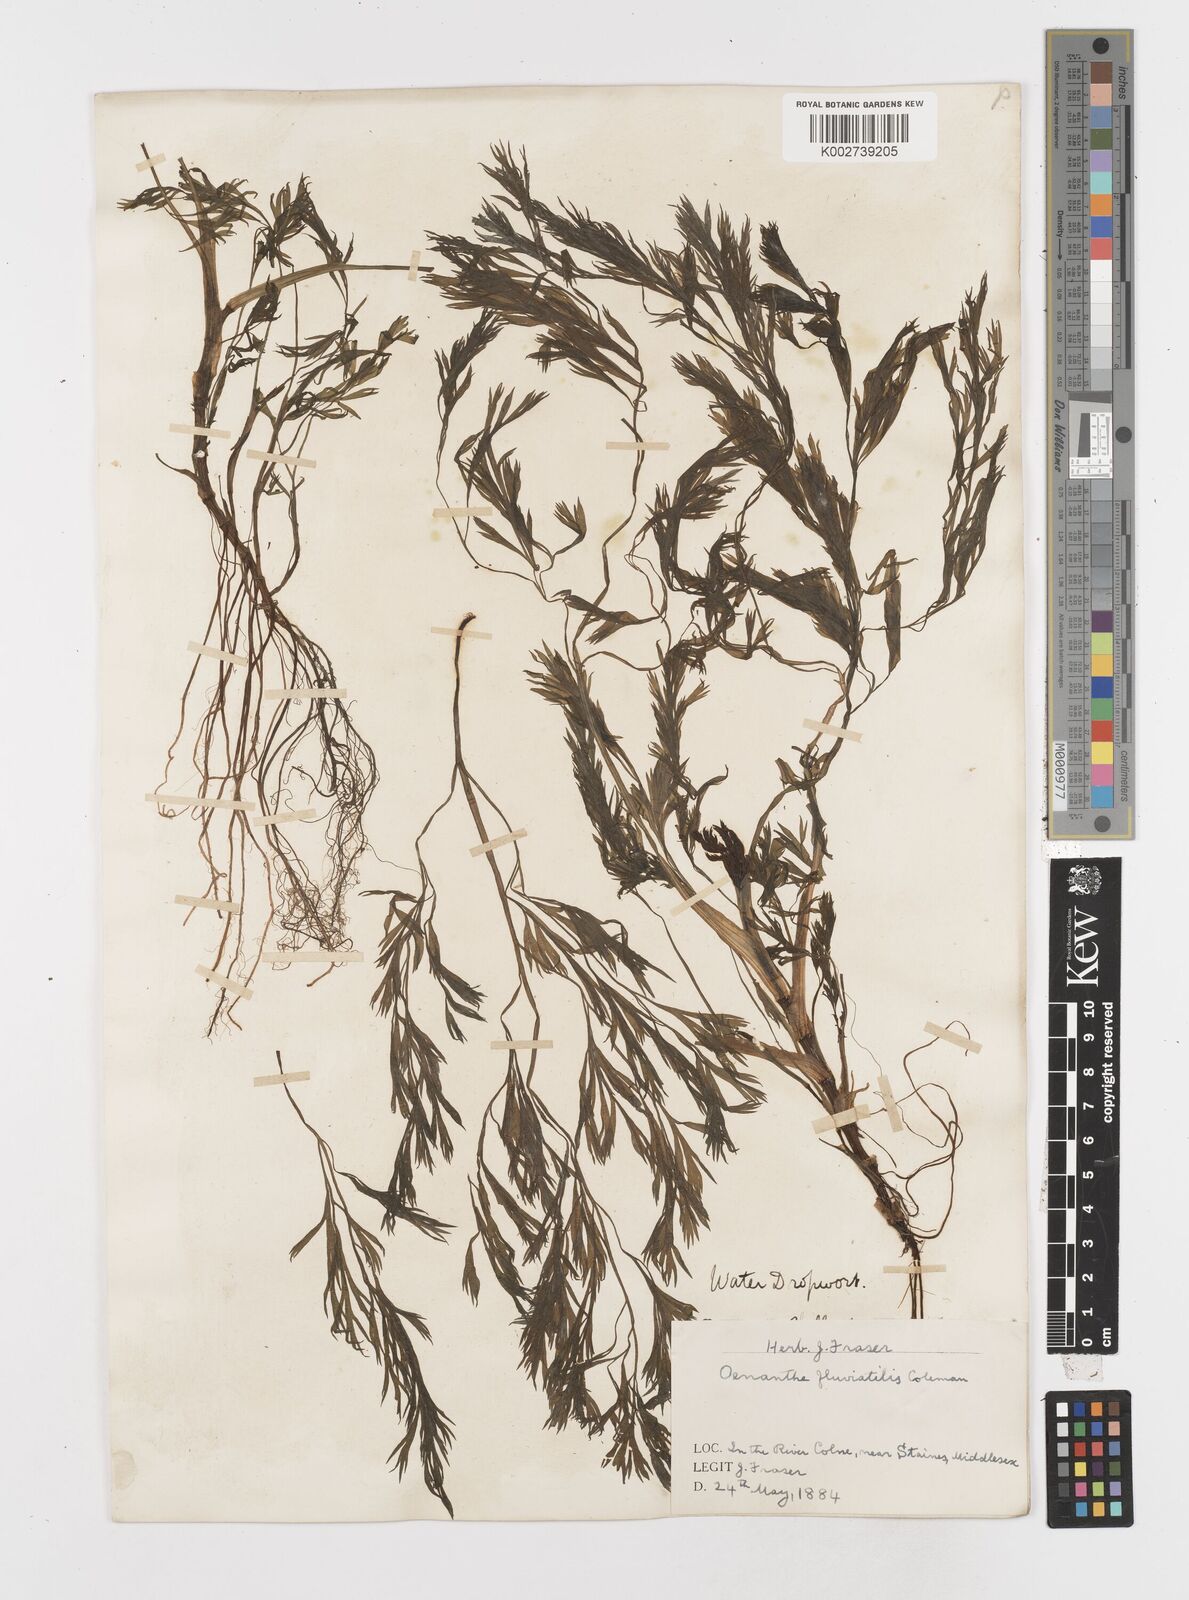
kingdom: Plantae
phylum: Tracheophyta
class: Magnoliopsida
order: Apiales
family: Apiaceae
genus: Oenanthe
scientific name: Oenanthe fluviatilis
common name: River water-dropwort
